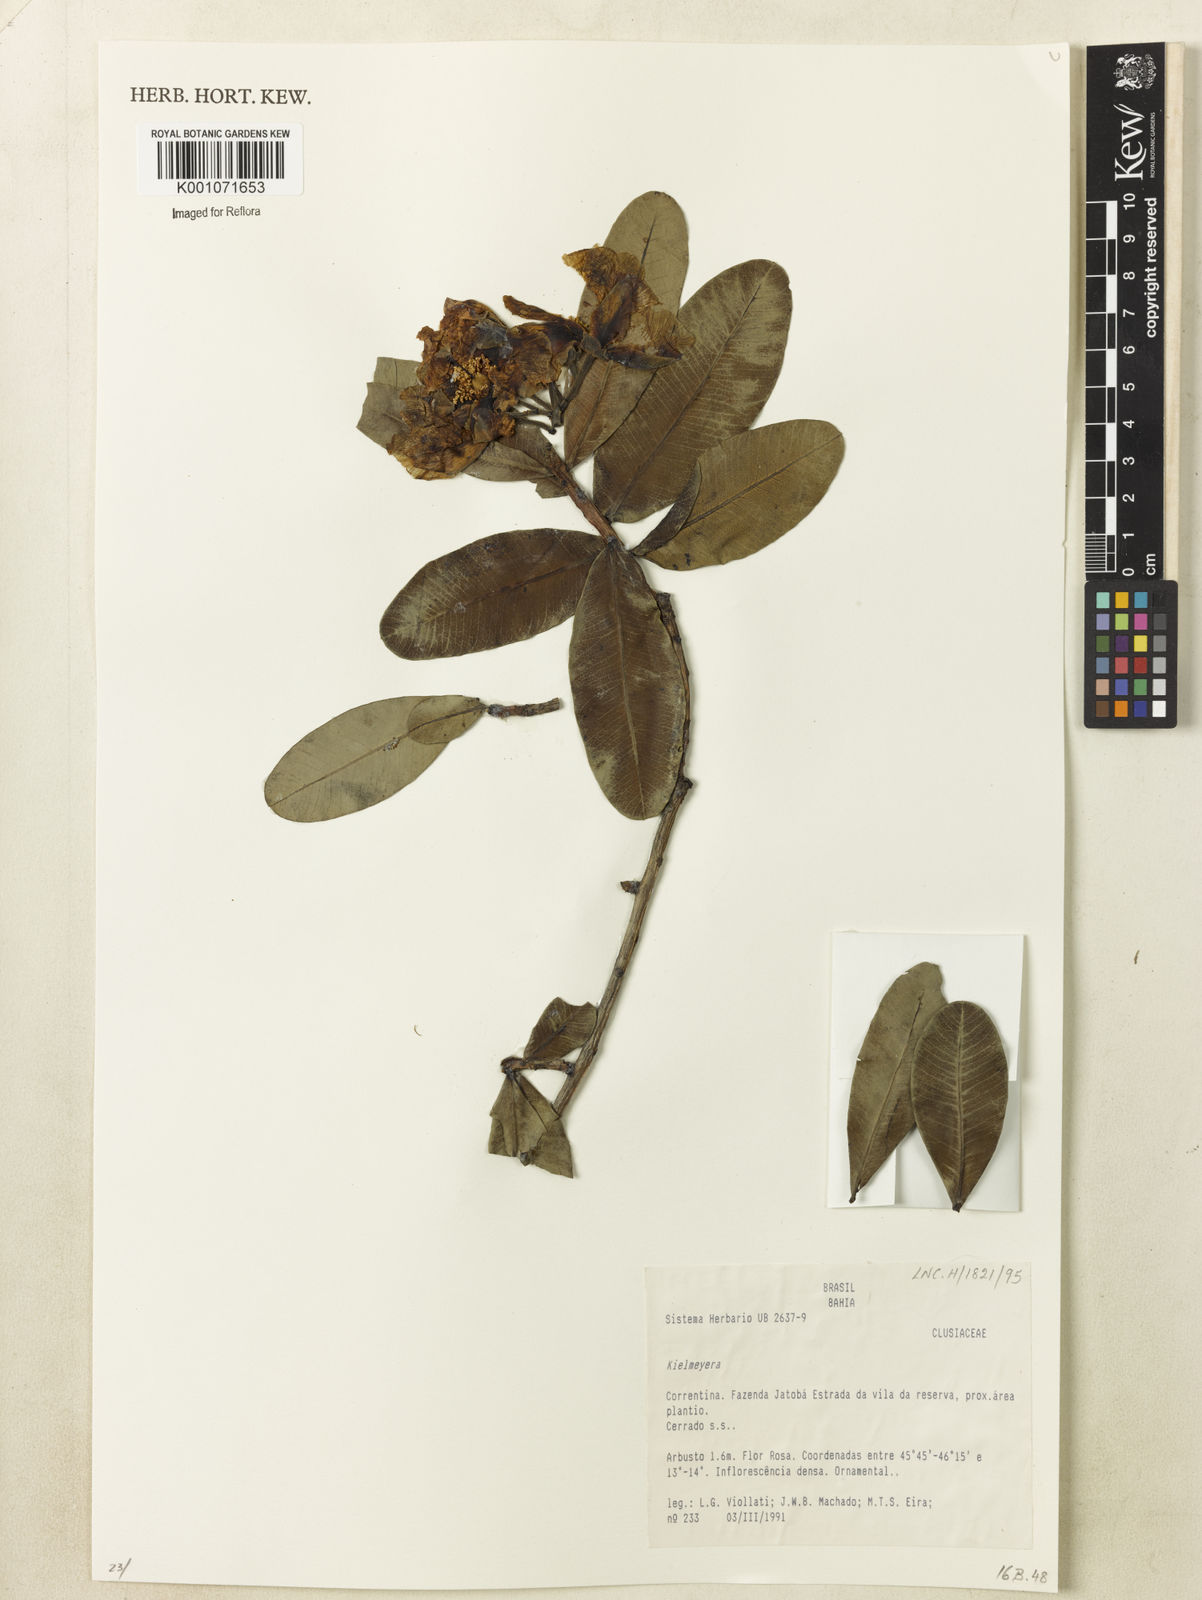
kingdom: Plantae
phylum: Tracheophyta
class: Magnoliopsida
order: Malpighiales
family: Calophyllaceae
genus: Kielmeyera
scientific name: Kielmeyera
